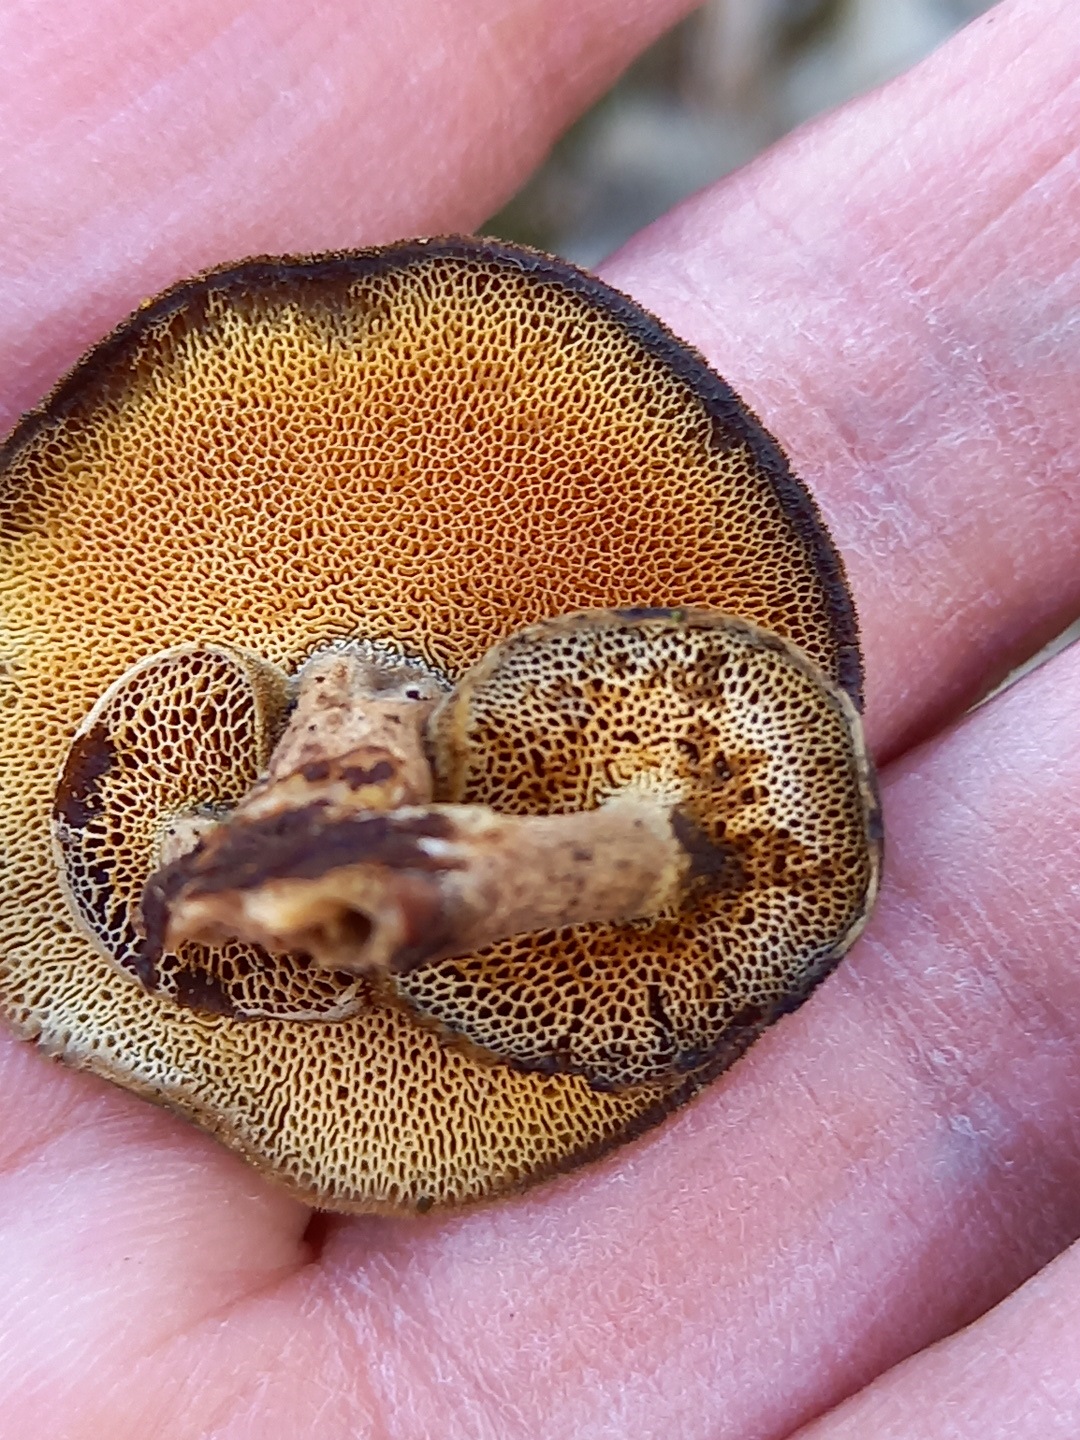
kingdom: Fungi
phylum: Basidiomycota
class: Agaricomycetes
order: Polyporales
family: Polyporaceae
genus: Lentinus
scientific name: Lentinus brumalis
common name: vinter-stilkporesvamp
